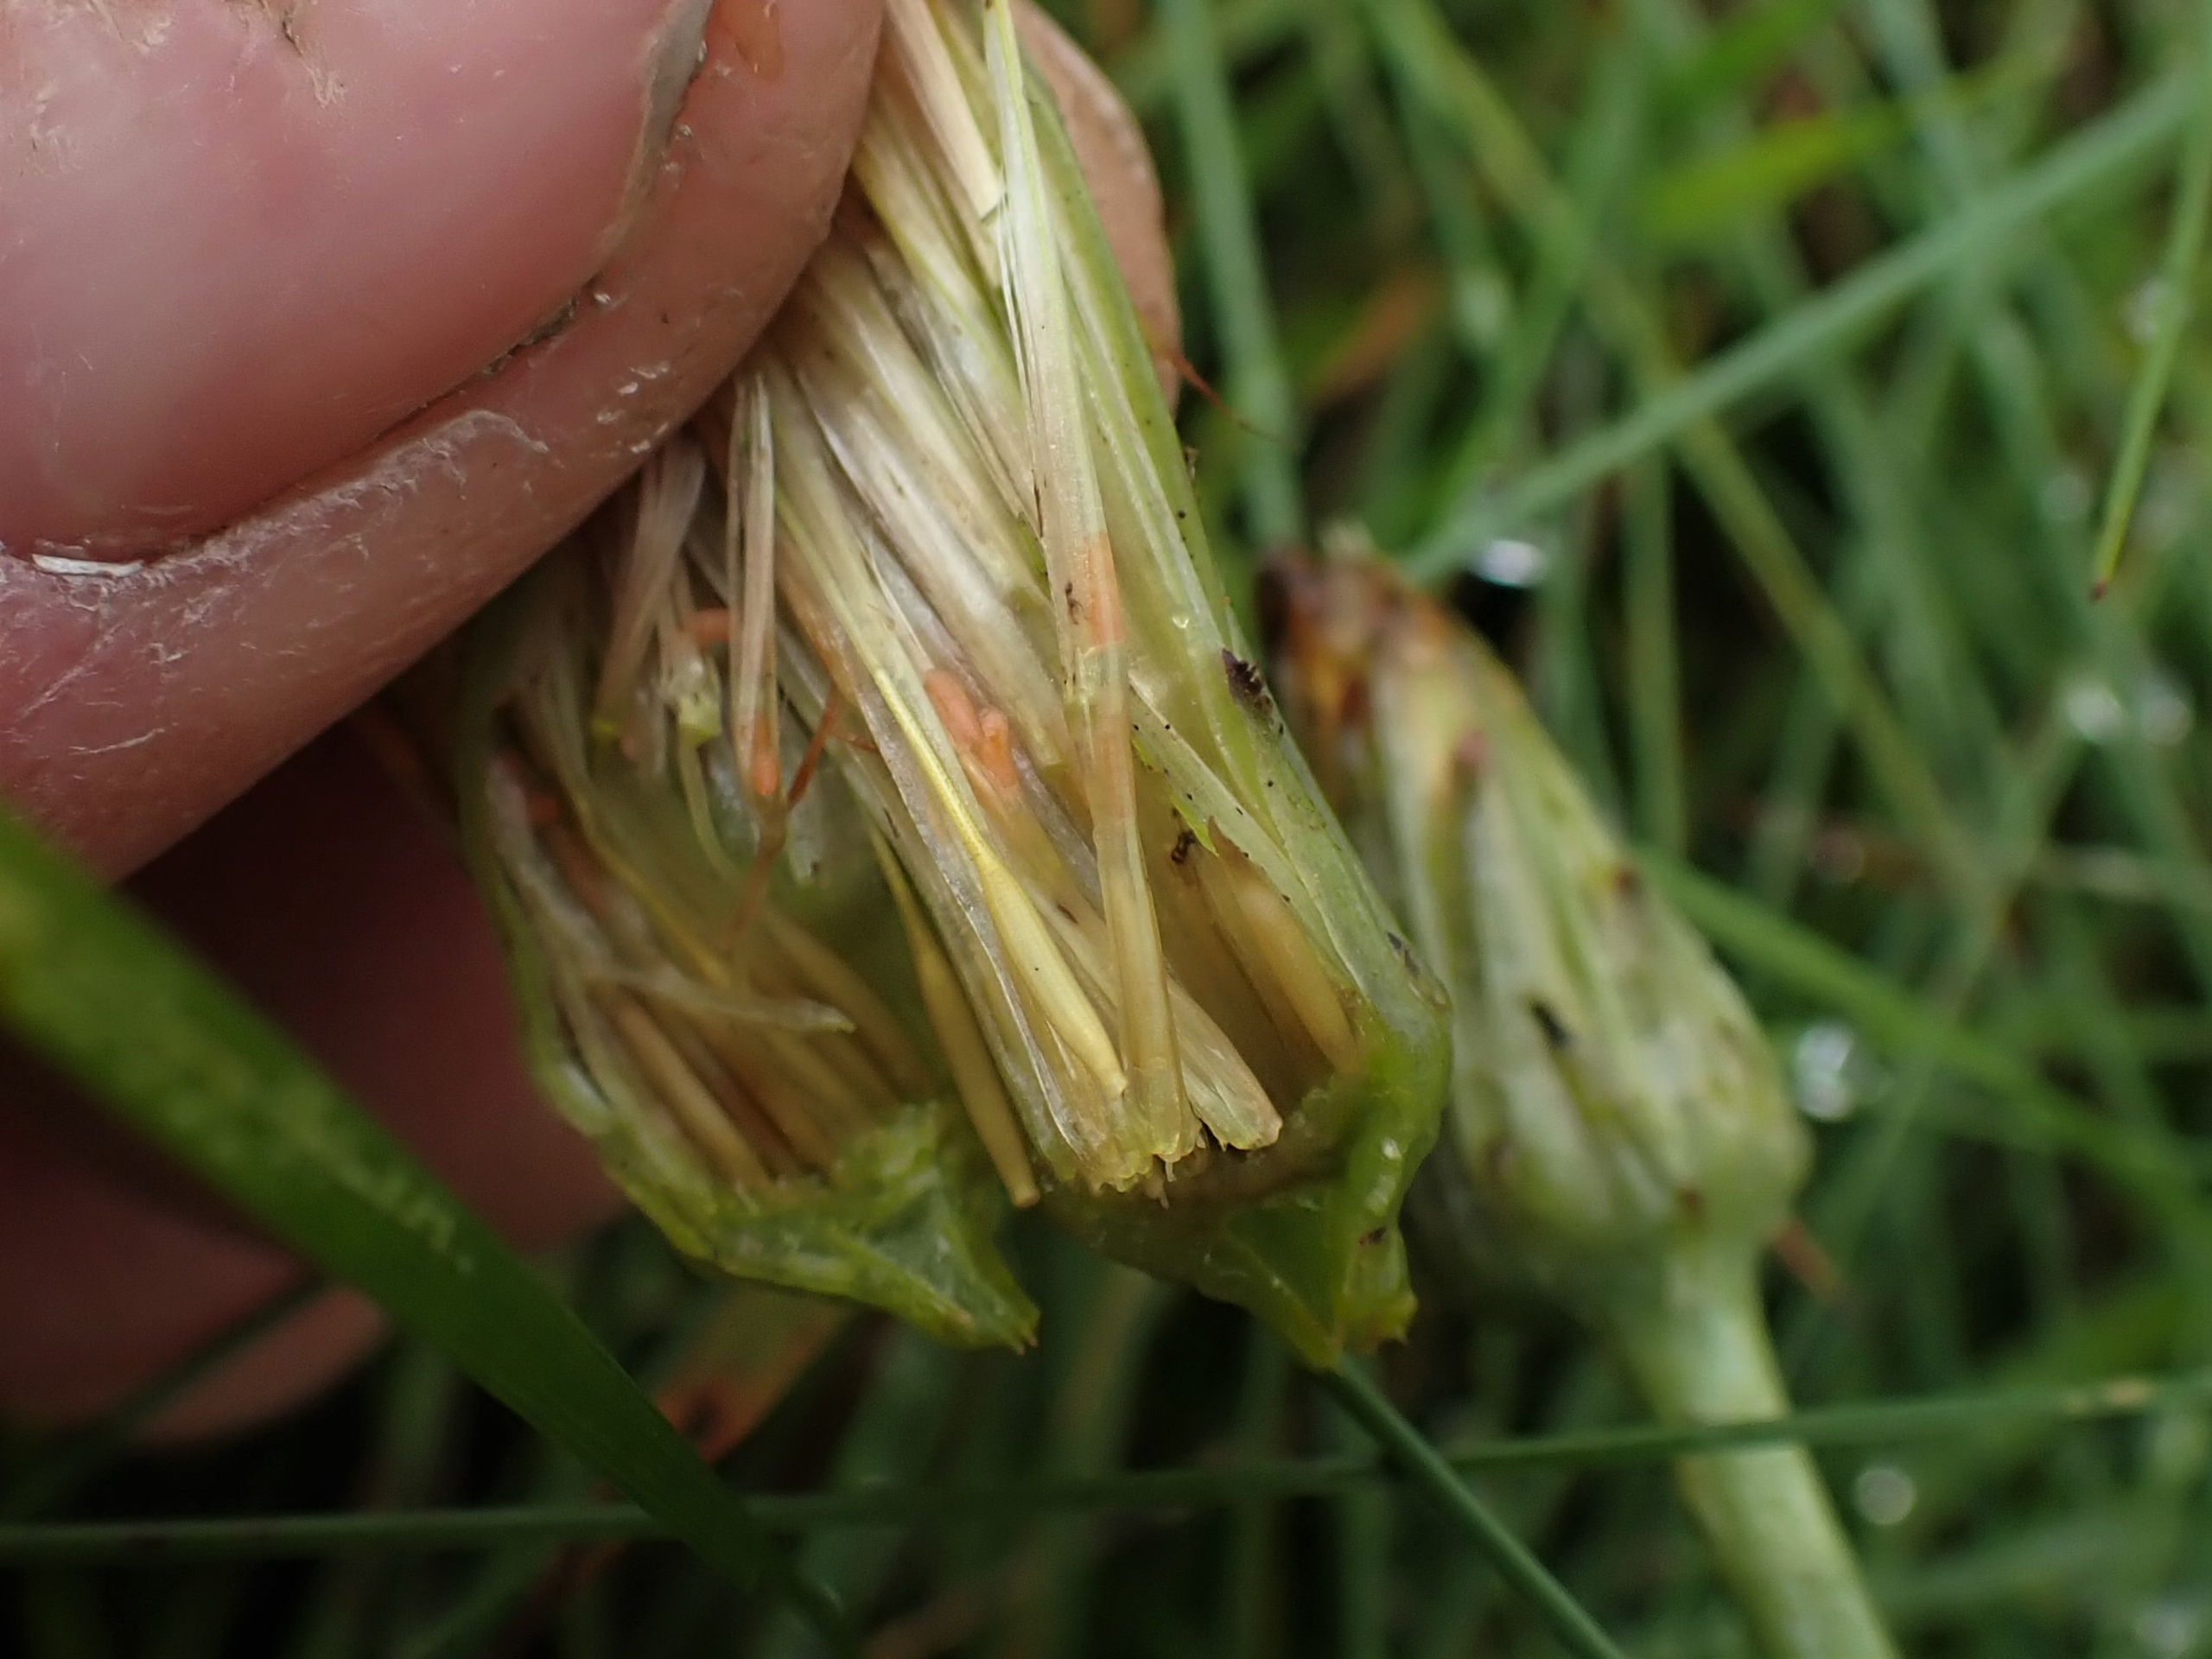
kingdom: Animalia
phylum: Arthropoda
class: Insecta
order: Diptera
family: Cecidomyiidae
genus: Jaapiella
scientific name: Jaapiella hypochoeridis
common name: Orange kongepengalmyg
